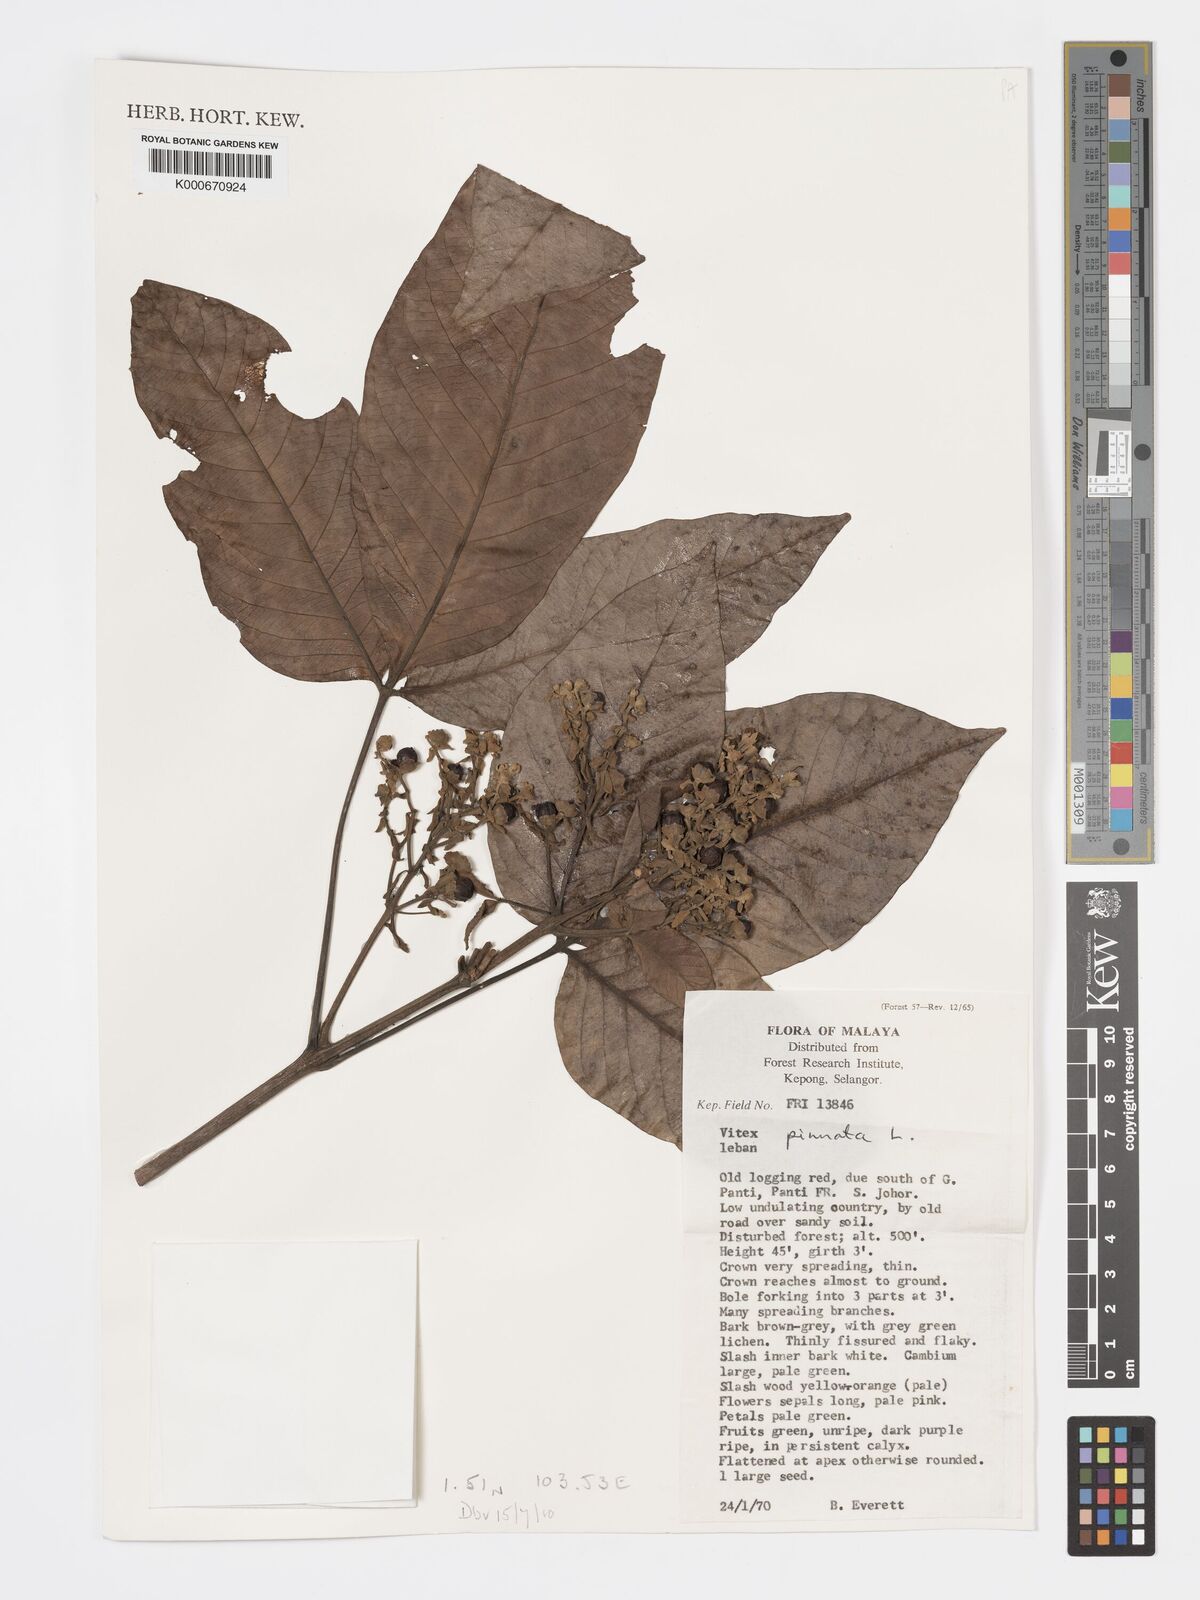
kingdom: Plantae
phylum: Tracheophyta
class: Magnoliopsida
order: Lamiales
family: Lamiaceae
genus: Vitex
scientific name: Vitex pinnata
